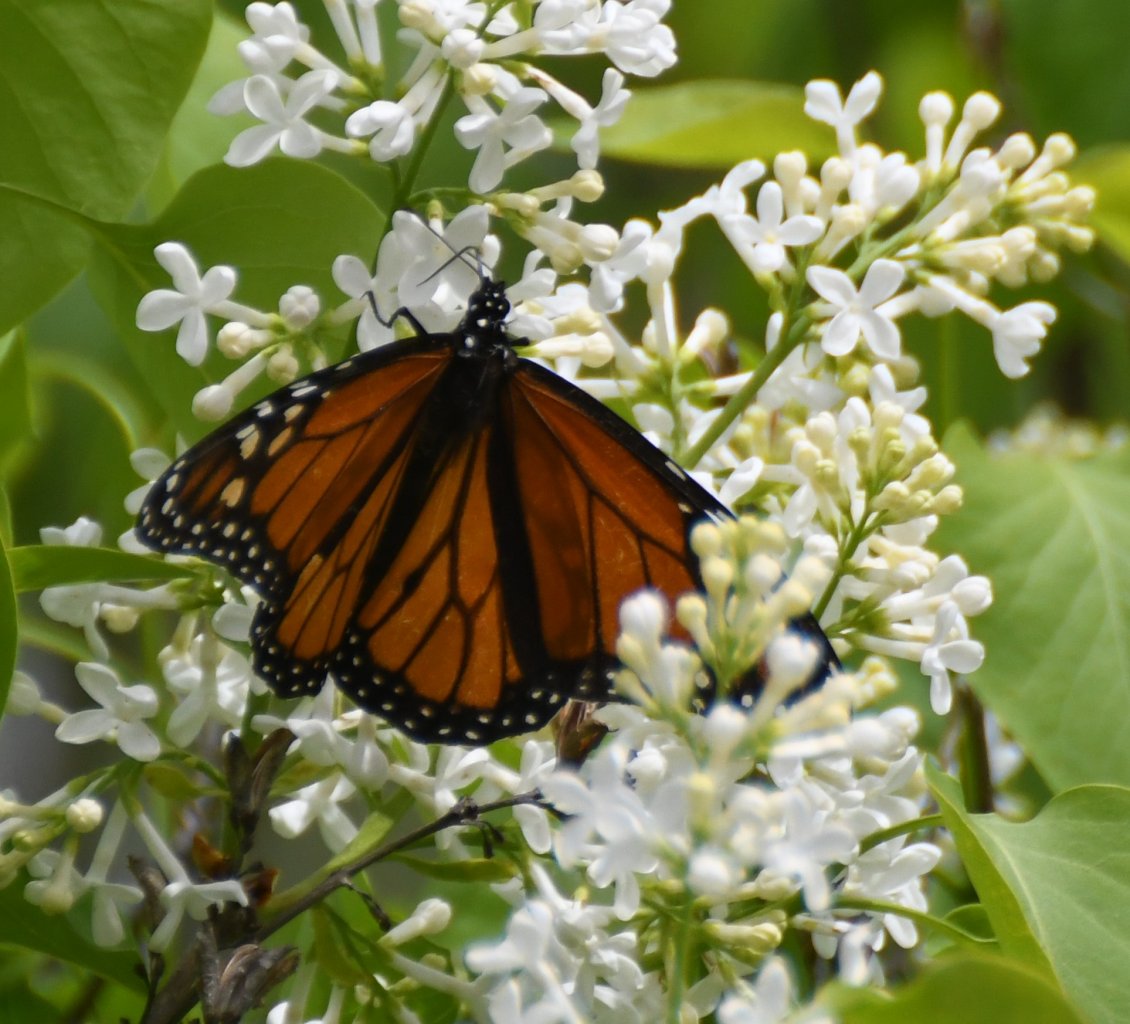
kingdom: Animalia
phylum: Arthropoda
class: Insecta
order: Lepidoptera
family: Nymphalidae
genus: Danaus
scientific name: Danaus plexippus
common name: Monarch
